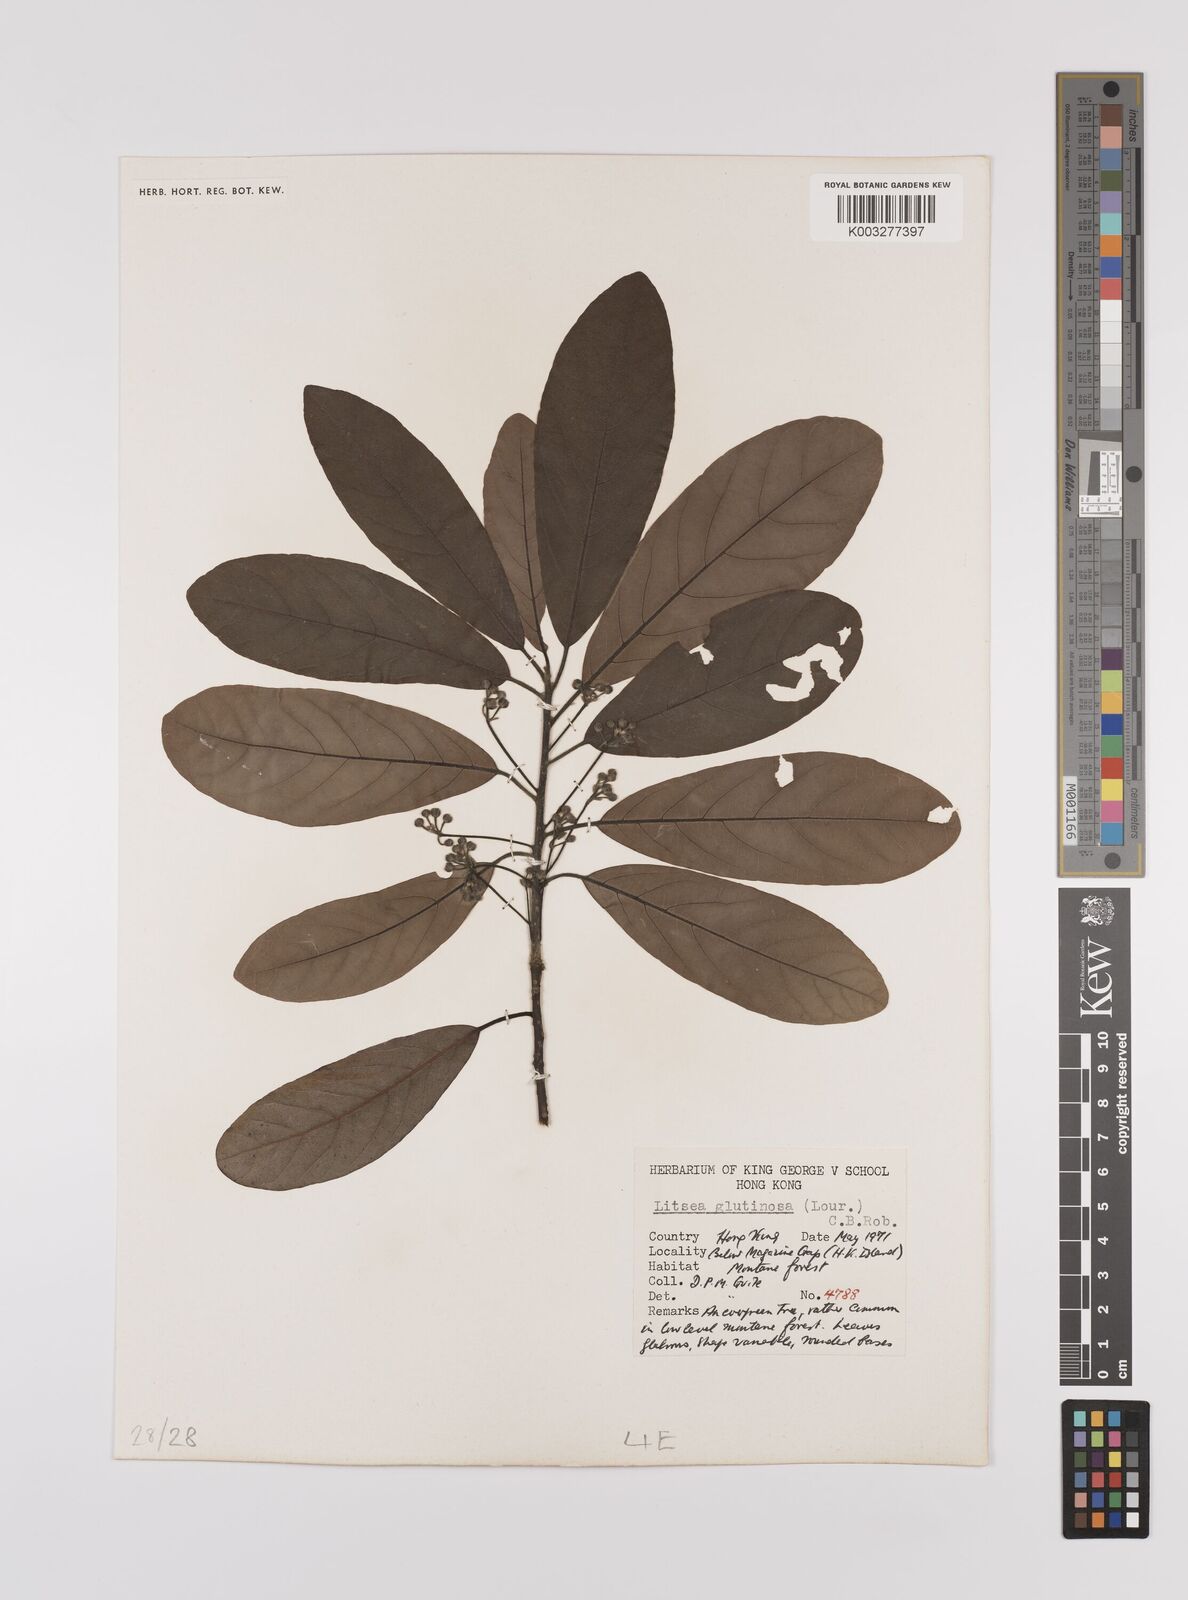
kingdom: Plantae
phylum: Tracheophyta
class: Magnoliopsida
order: Laurales
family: Lauraceae
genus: Litsea
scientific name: Litsea glutinosa
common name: Indian-laurel
